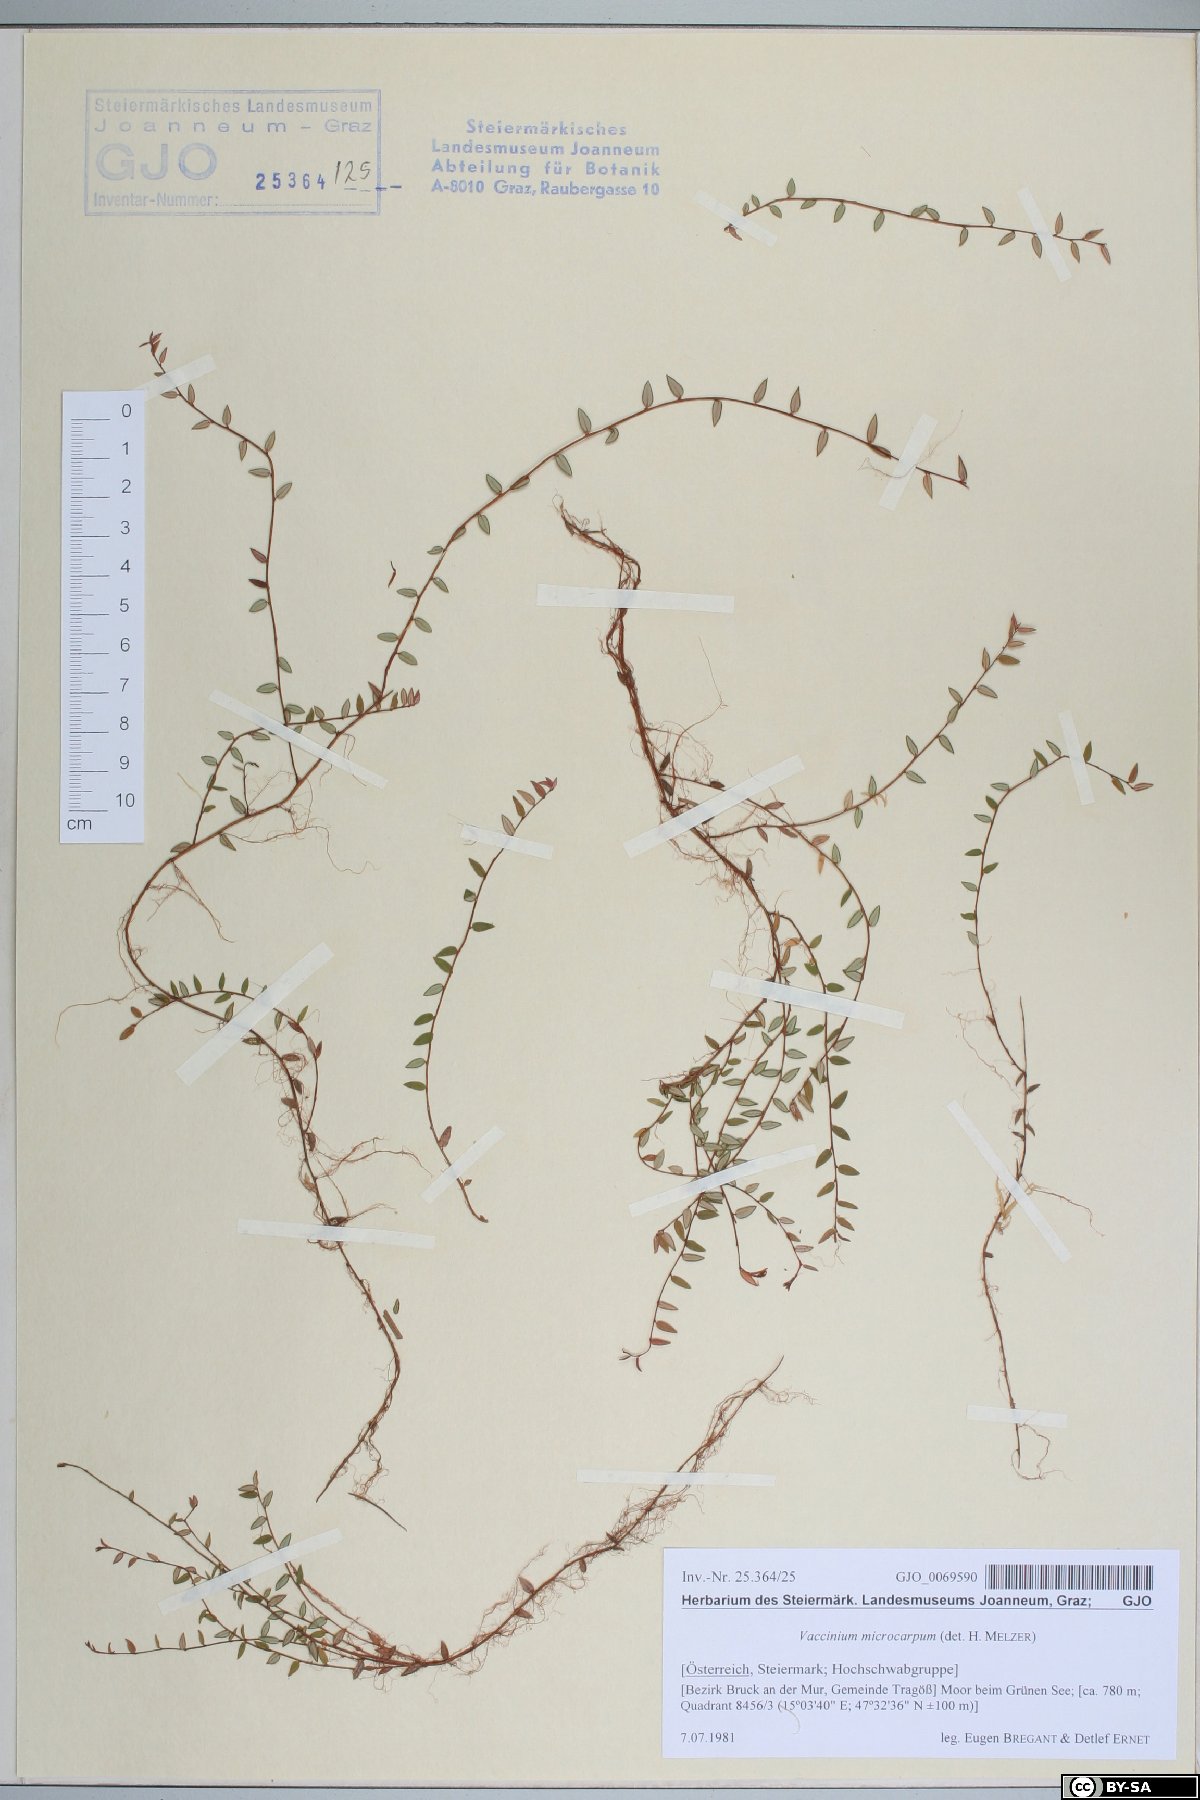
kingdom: Plantae
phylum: Tracheophyta
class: Magnoliopsida
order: Ericales
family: Ericaceae
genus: Vaccinium
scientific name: Vaccinium microcarpum
